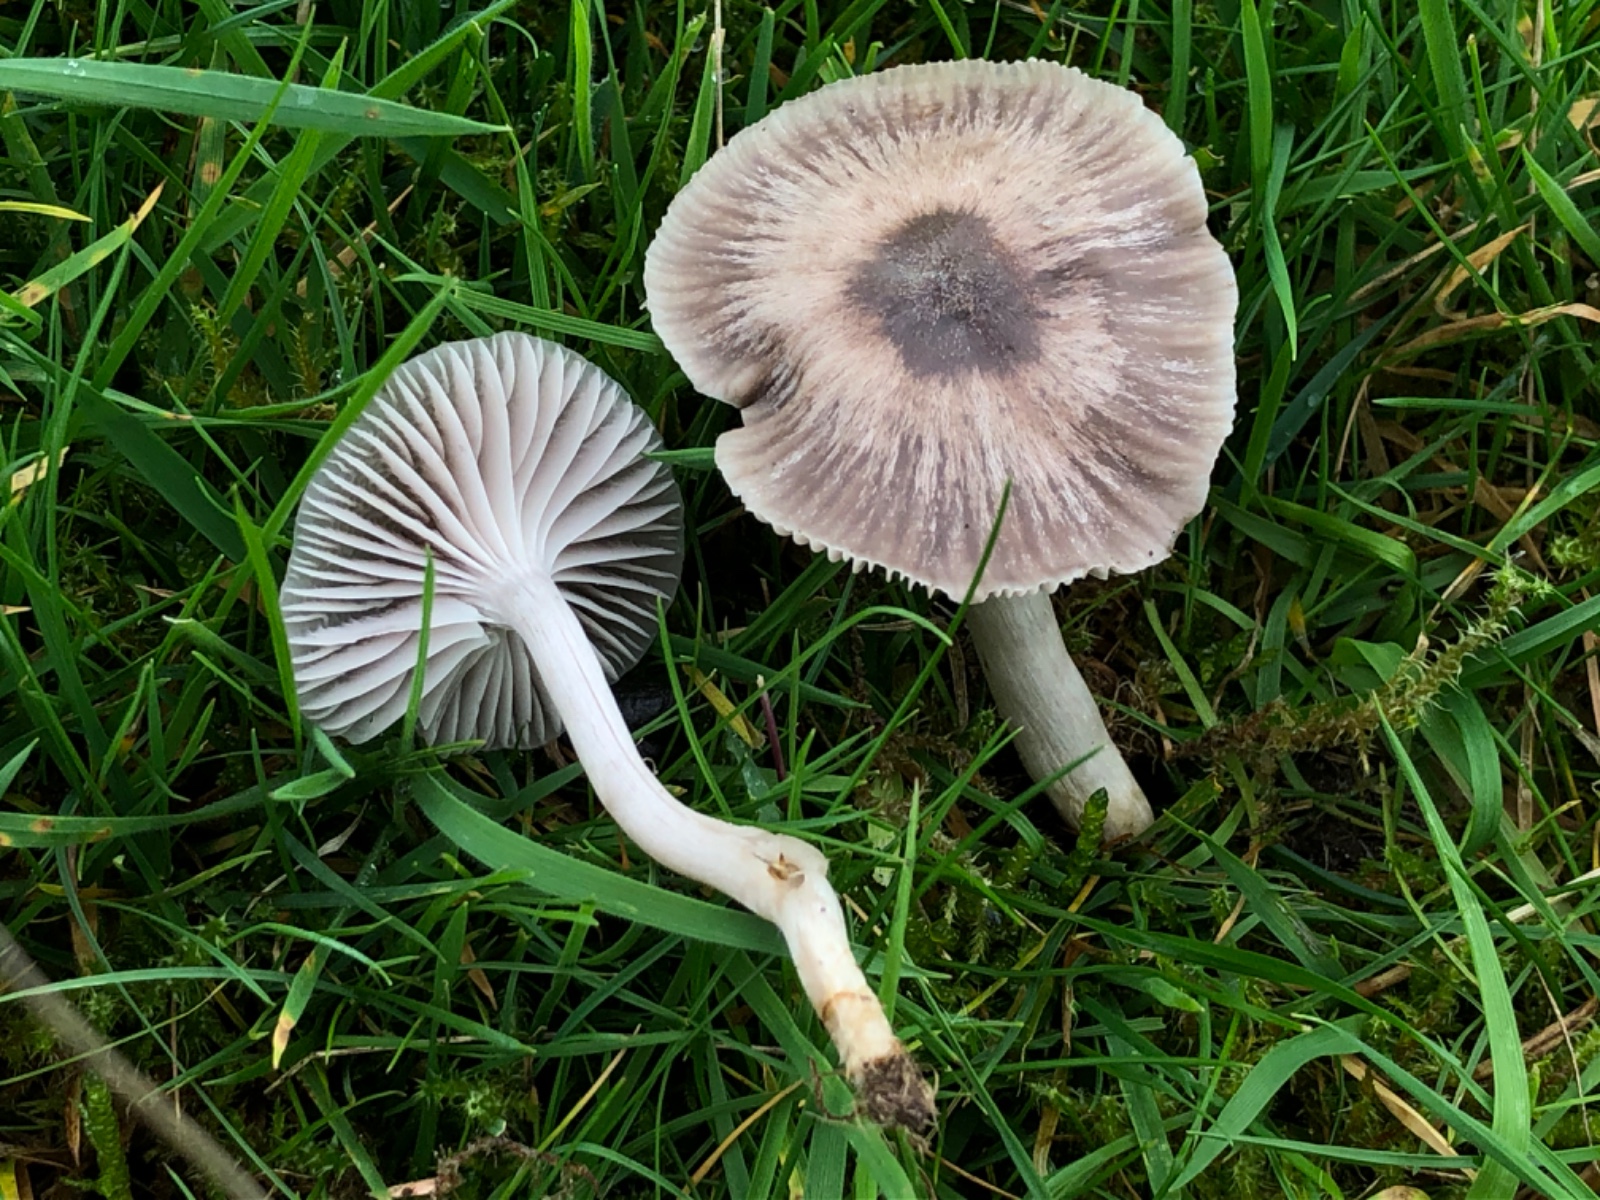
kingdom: Fungi
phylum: Basidiomycota
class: Agaricomycetes
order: Agaricales
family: Hygrophoraceae
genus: Hygrocybe
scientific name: Hygrocybe
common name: vokshat
